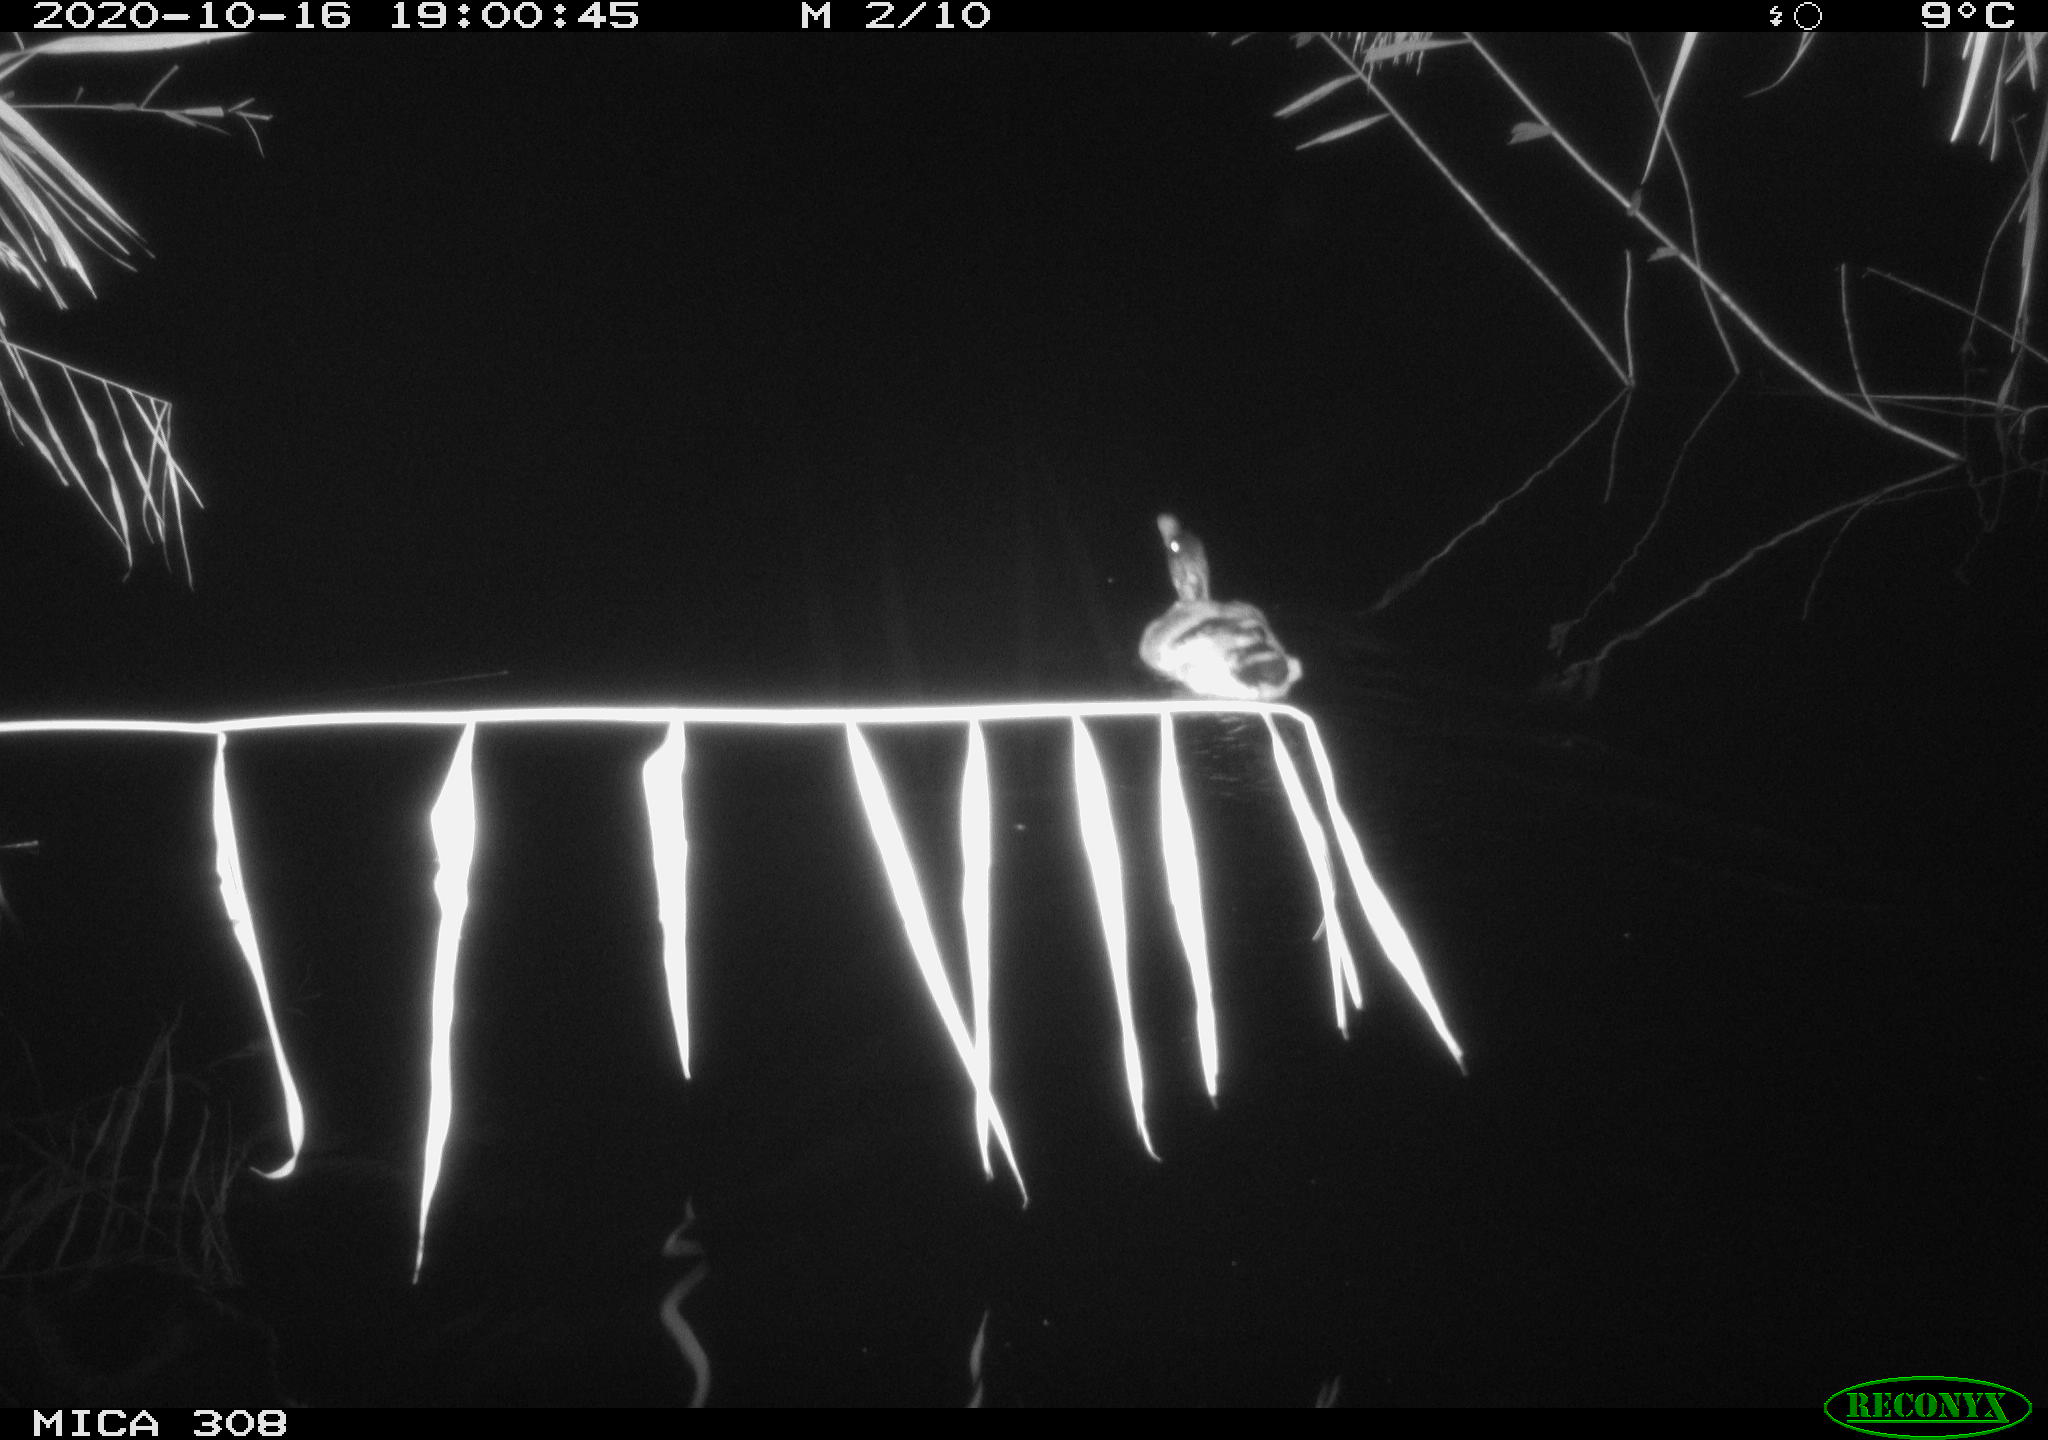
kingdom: Animalia
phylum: Chordata
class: Aves
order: Anseriformes
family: Anatidae
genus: Anas
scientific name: Anas platyrhynchos
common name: Mallard
